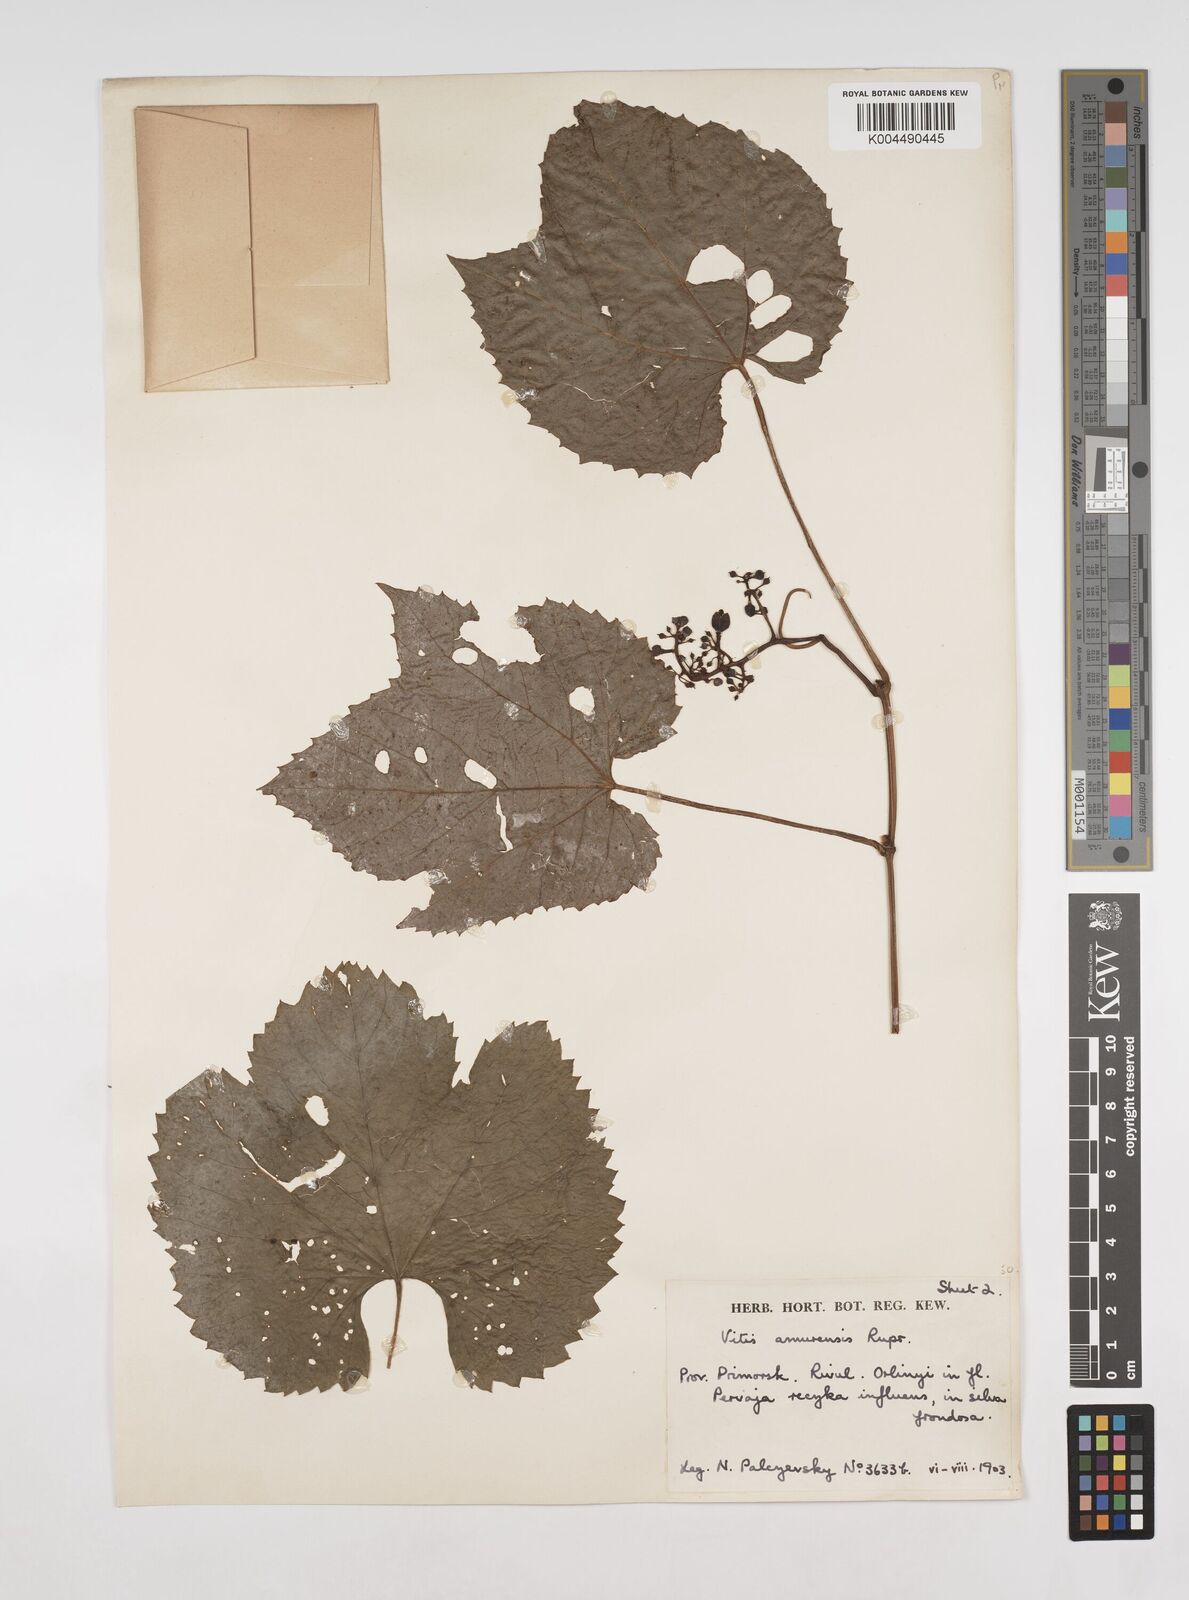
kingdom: Plantae
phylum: Tracheophyta
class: Magnoliopsida
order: Vitales
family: Vitaceae
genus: Vitis
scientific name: Vitis vinifera
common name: Grape-vine
